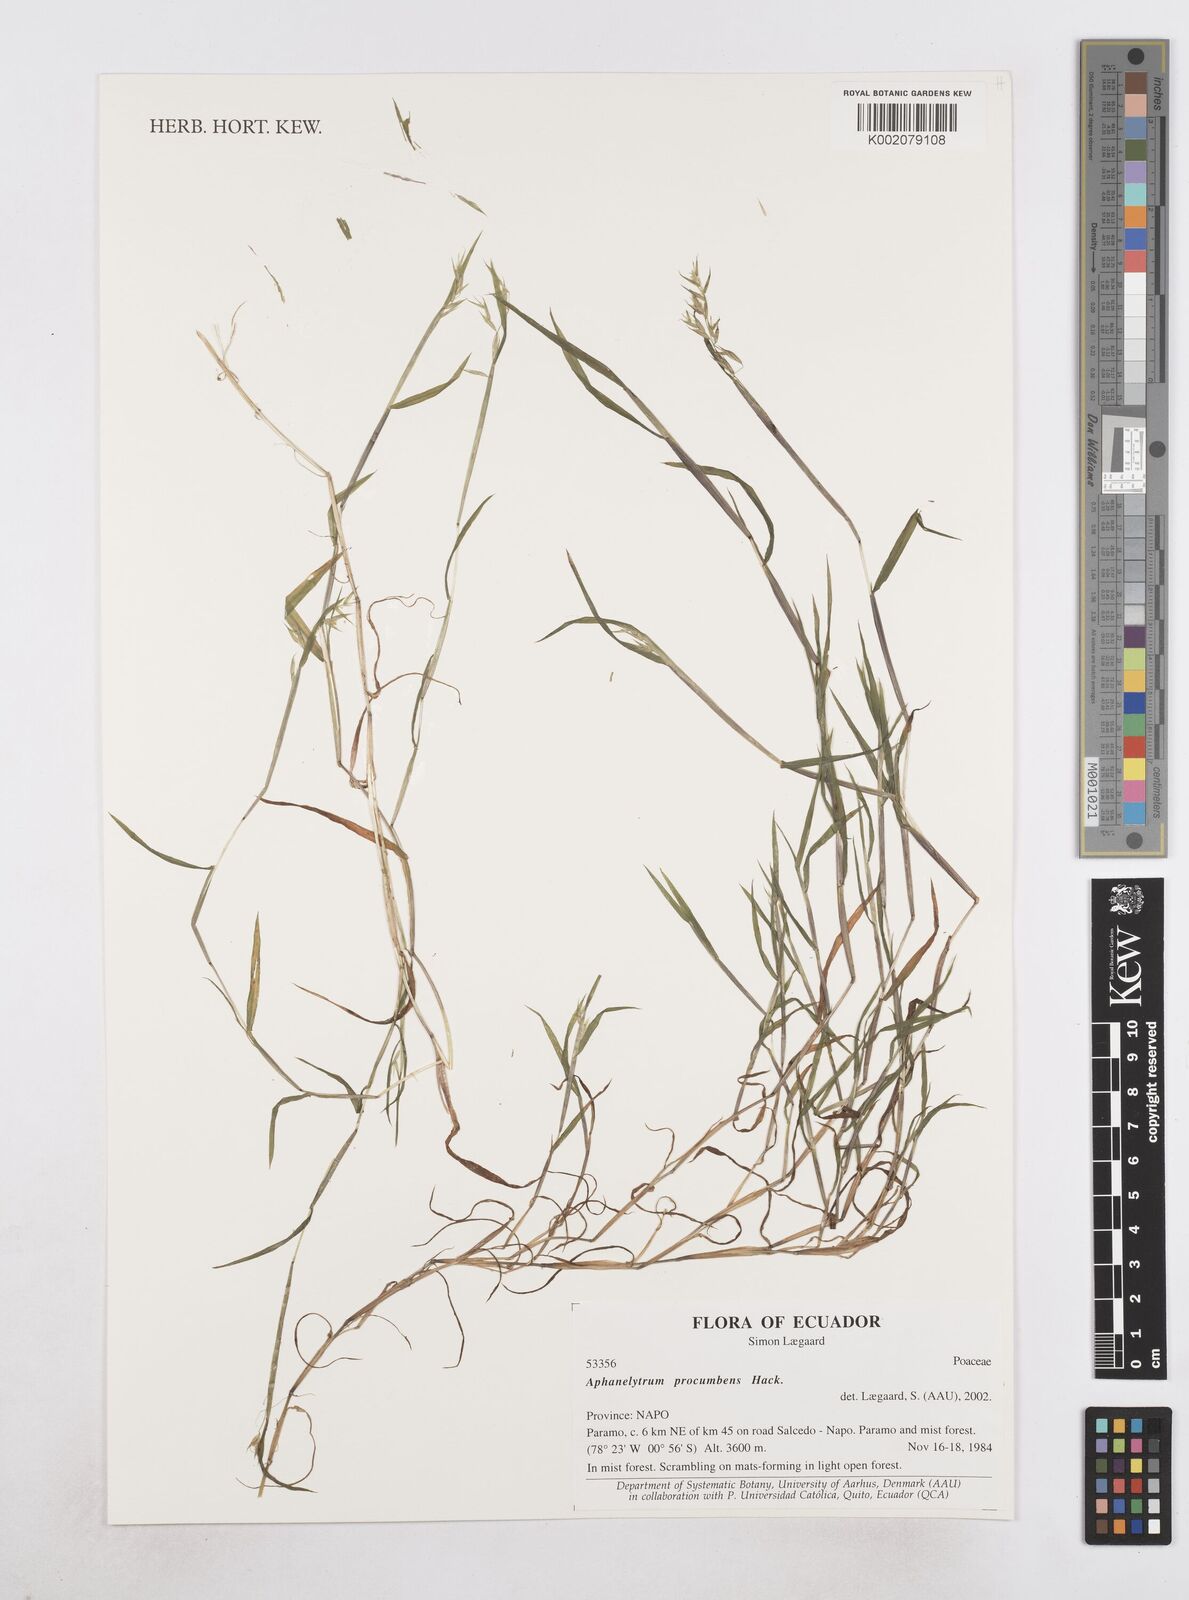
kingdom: Plantae
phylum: Tracheophyta
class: Liliopsida
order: Poales
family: Poaceae
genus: Poa
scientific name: Poa hitchcockiana
